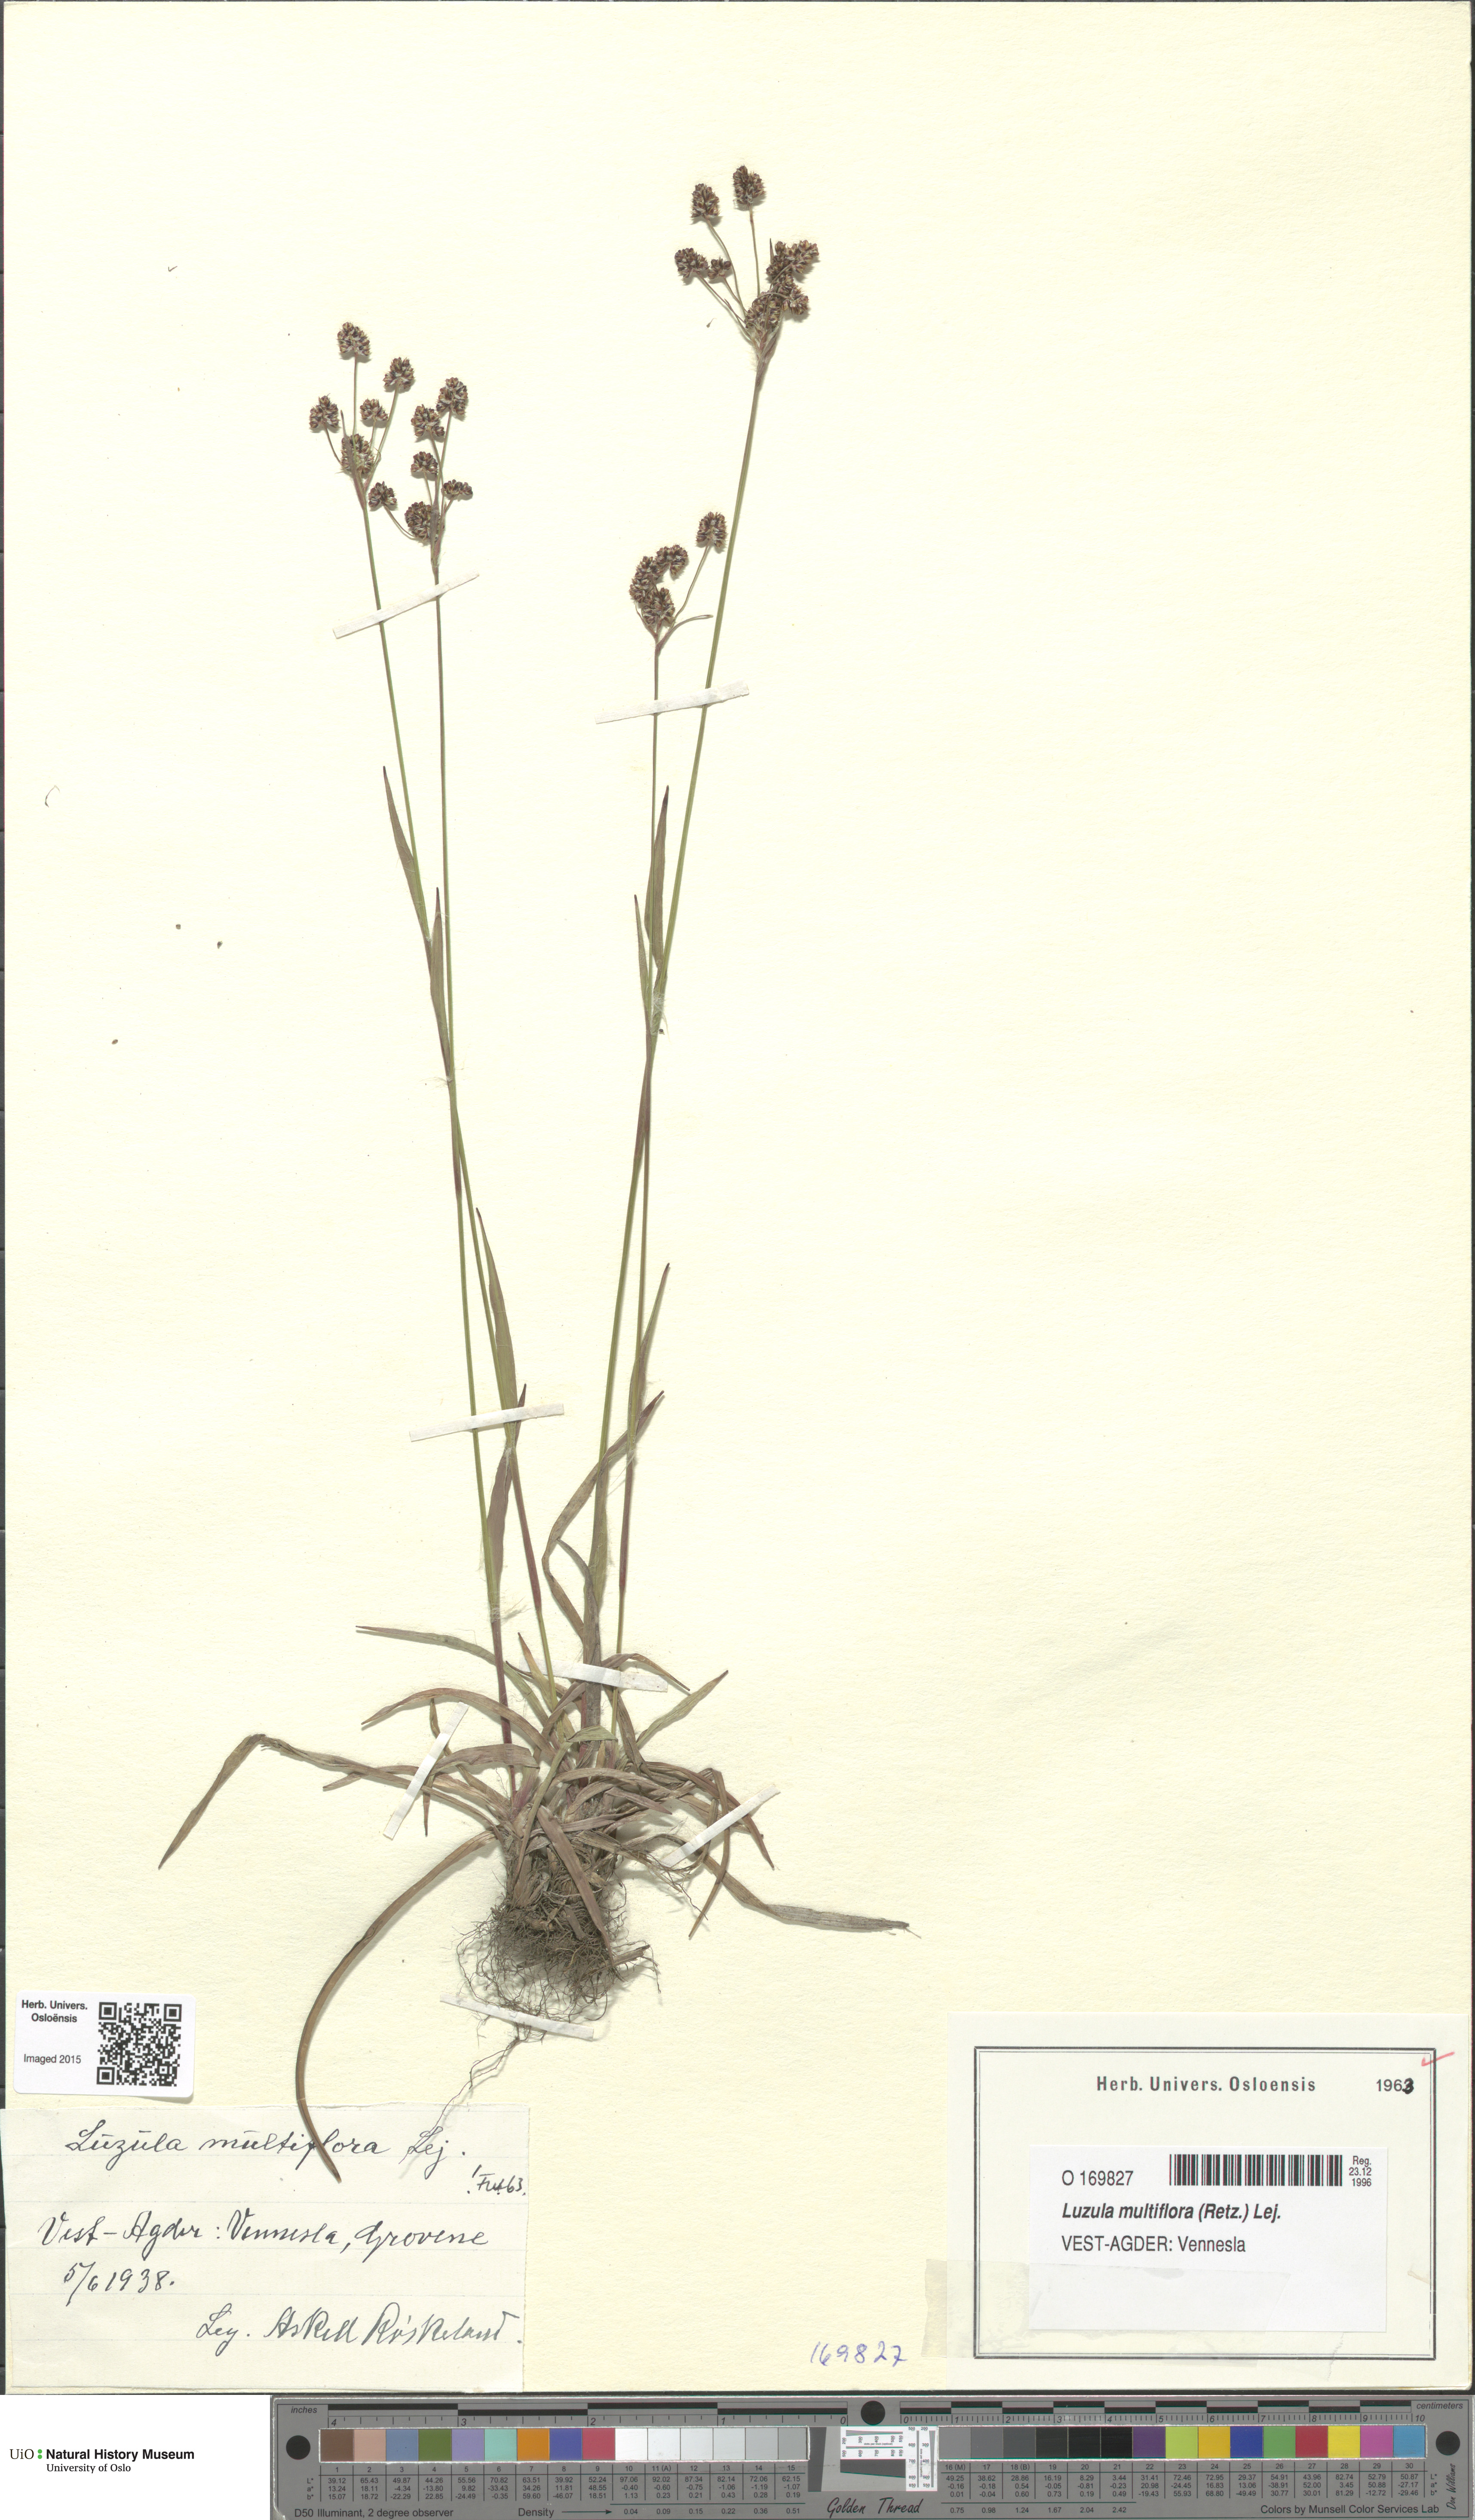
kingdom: Plantae
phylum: Tracheophyta
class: Liliopsida
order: Poales
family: Juncaceae
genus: Luzula
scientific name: Luzula multiflora
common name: Heath wood-rush
